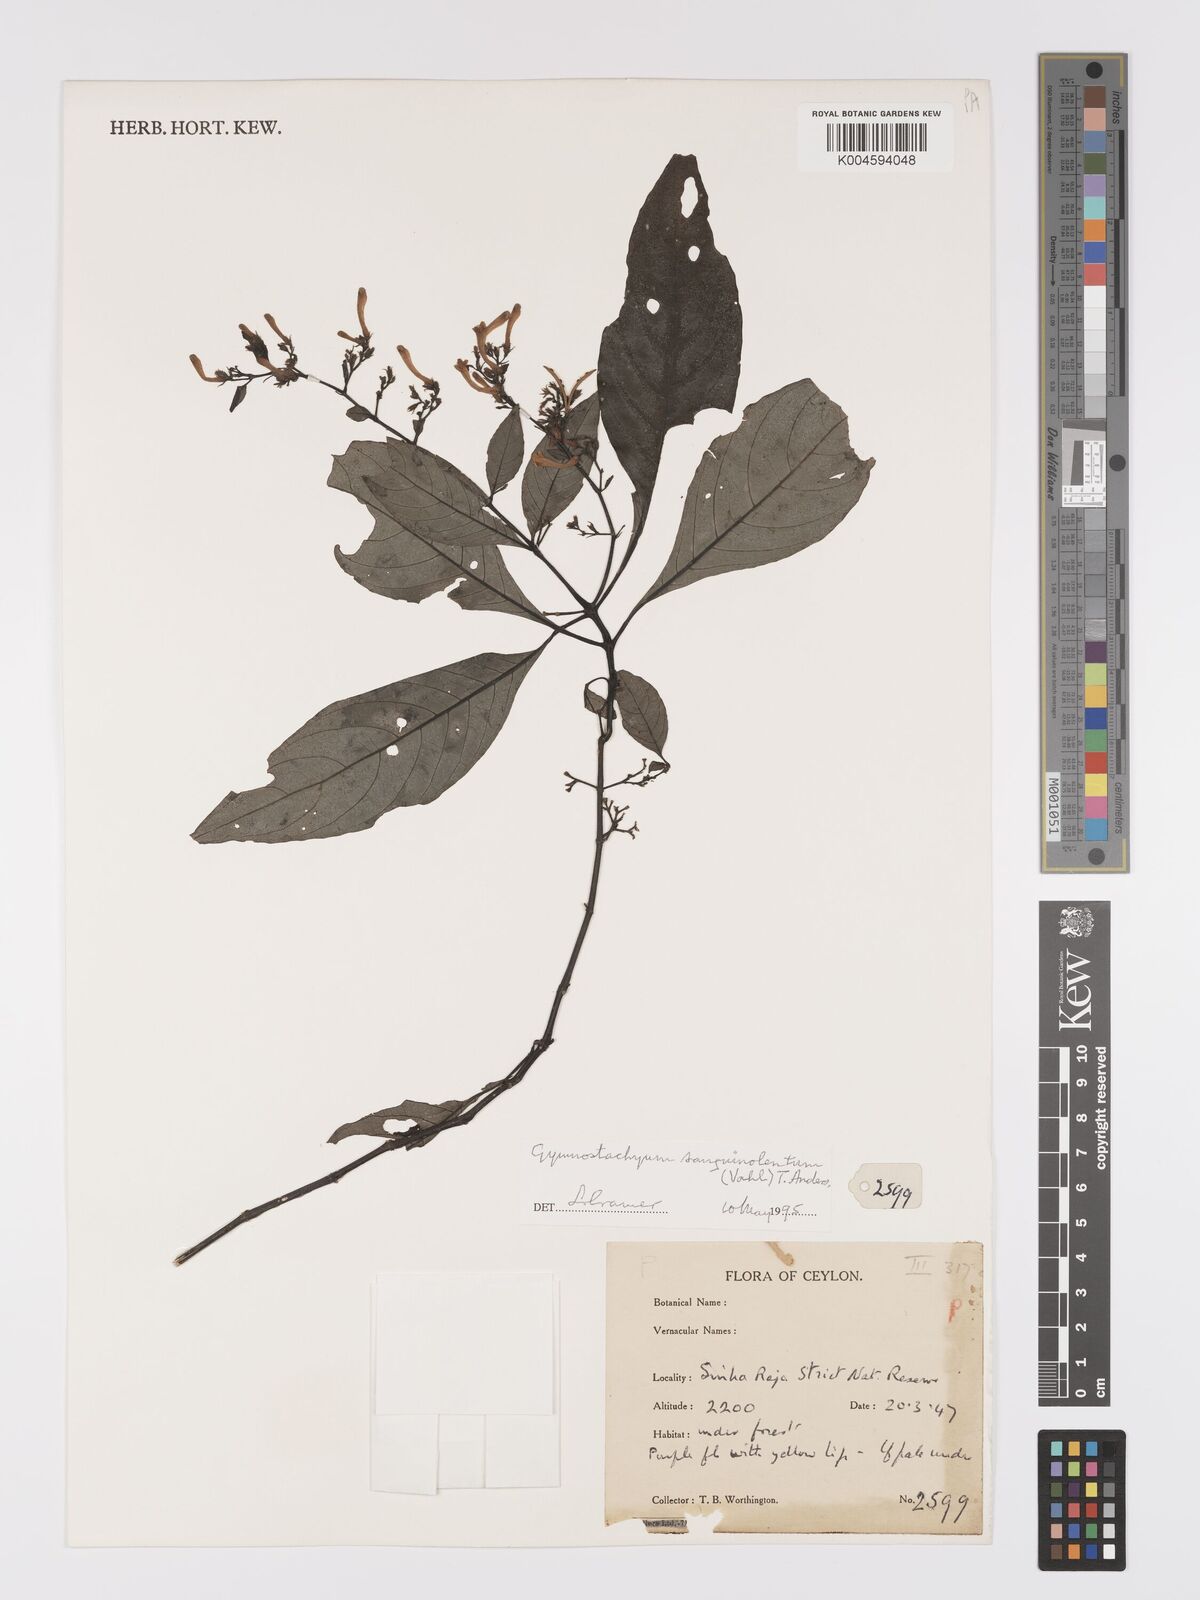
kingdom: Plantae
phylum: Tracheophyta
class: Magnoliopsida
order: Lamiales
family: Acanthaceae
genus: Gymnostachyum
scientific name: Gymnostachyum sanguinolentum
